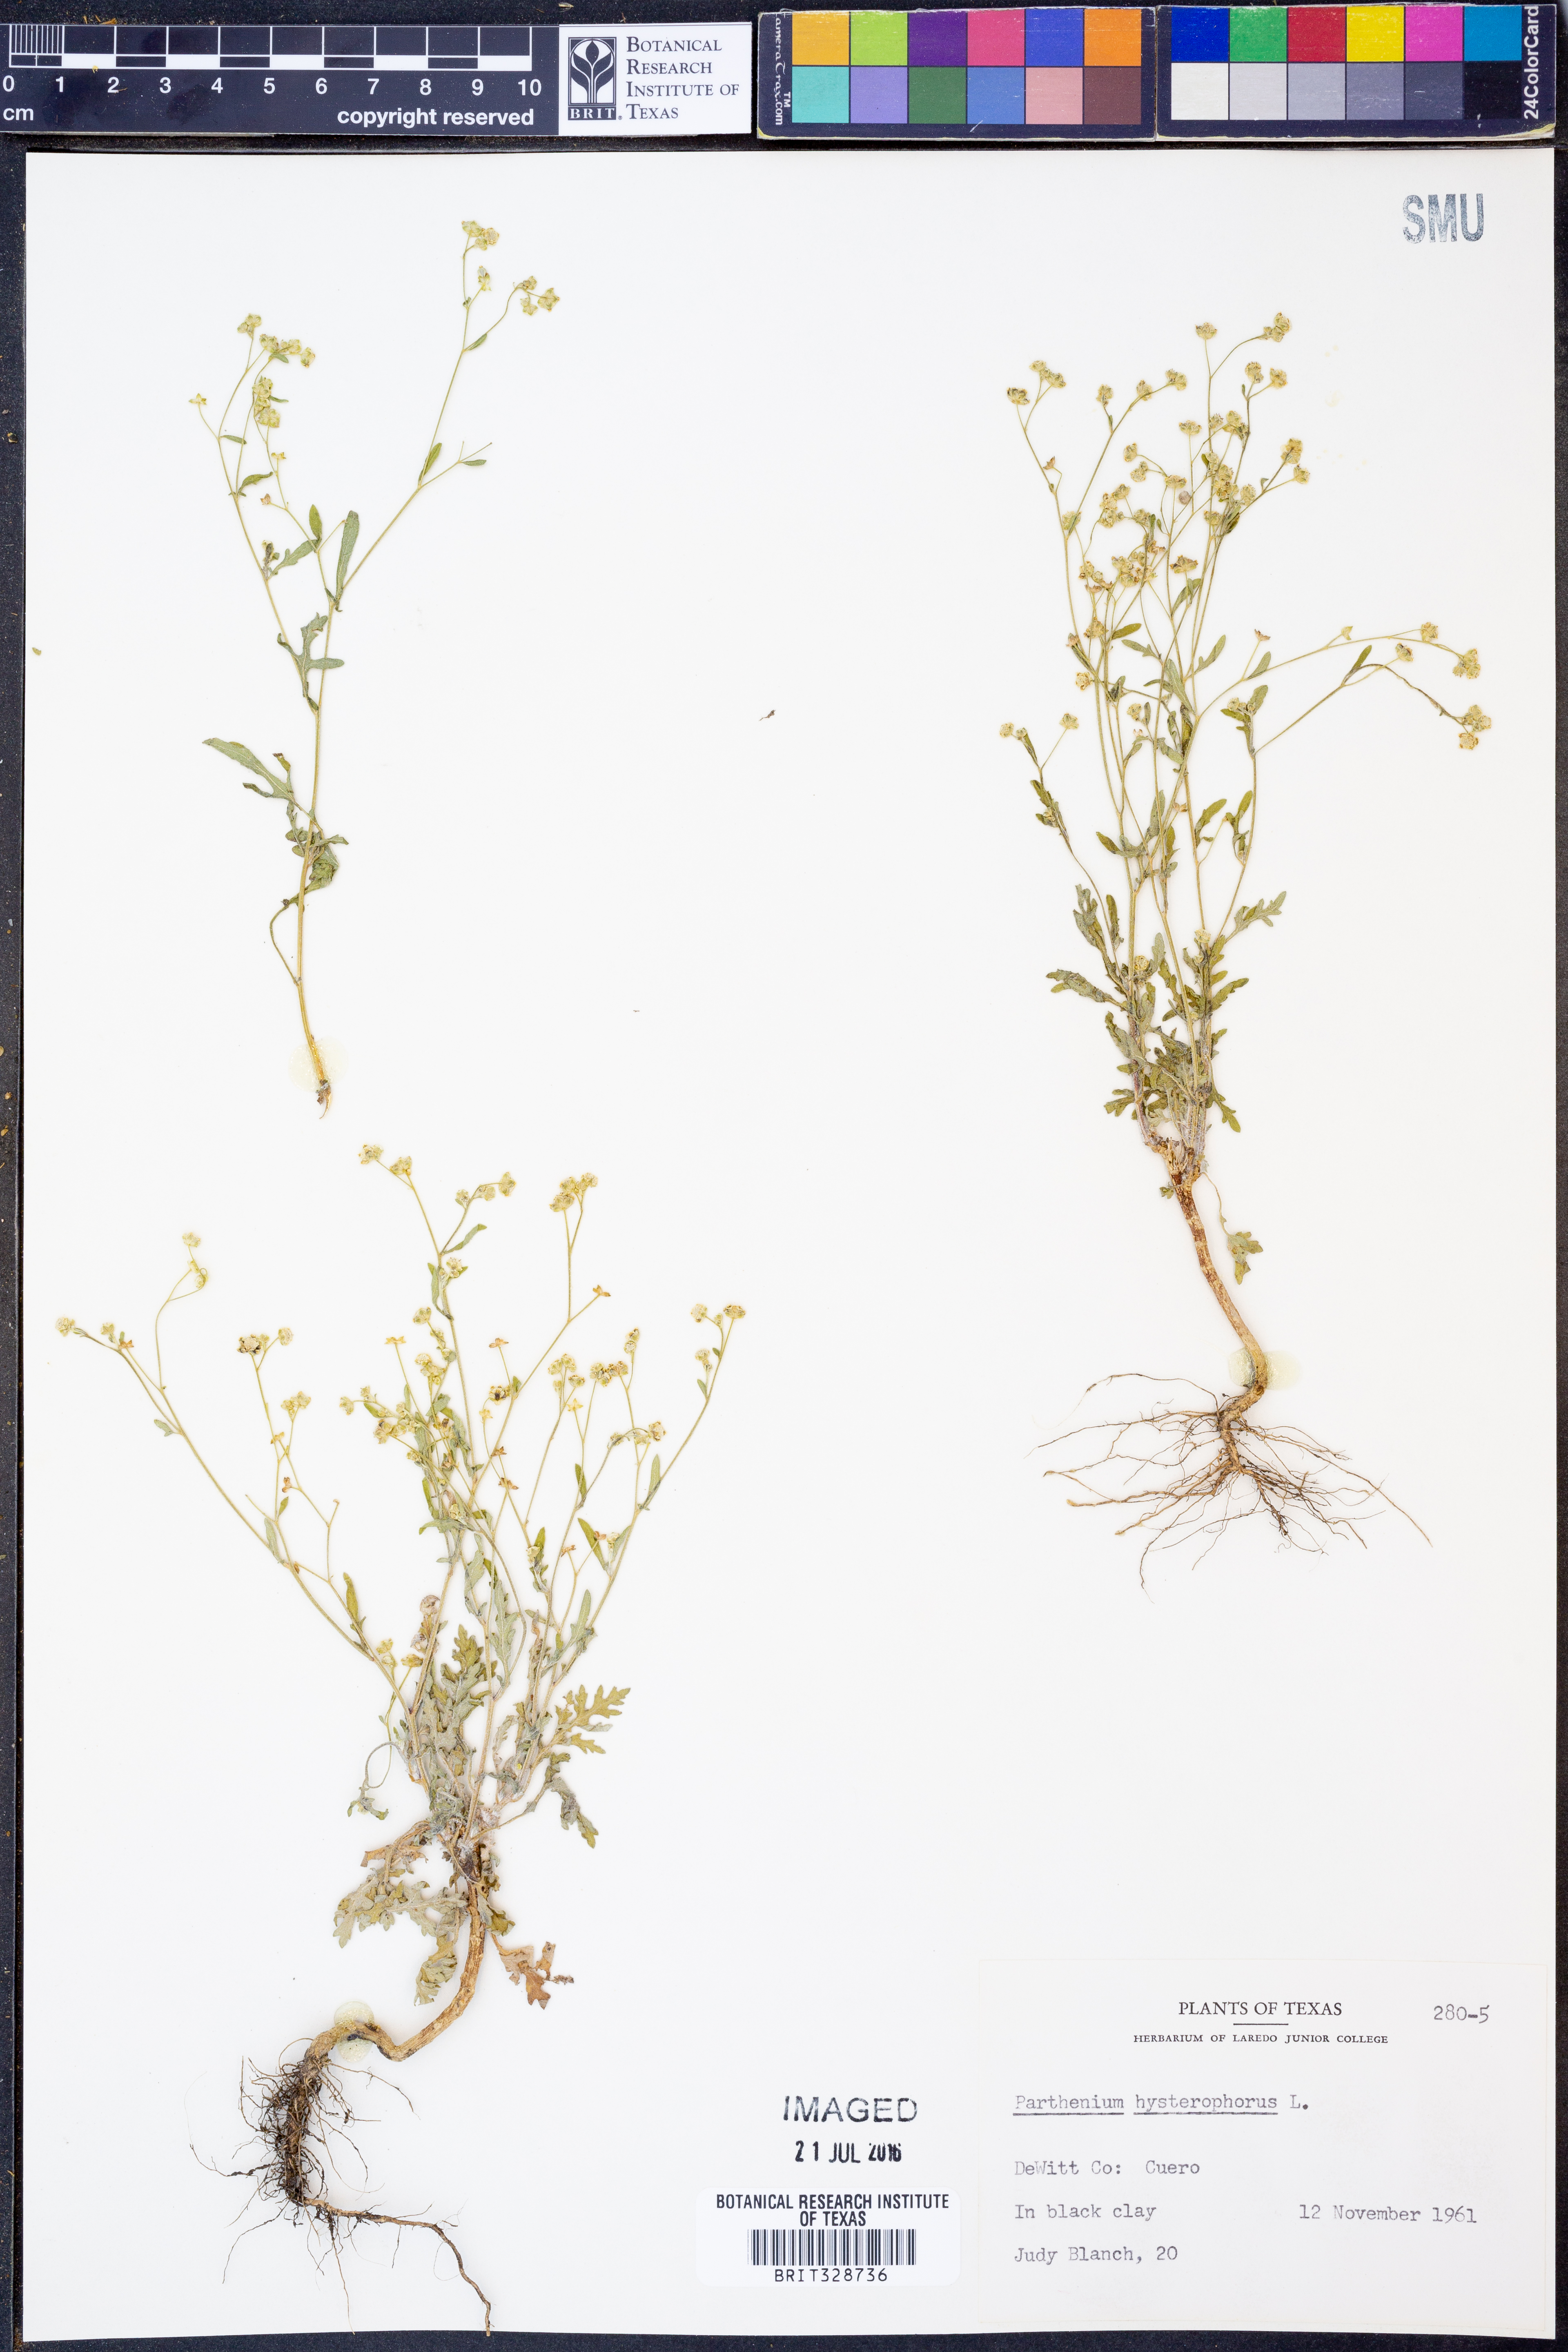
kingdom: Plantae
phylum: Tracheophyta
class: Magnoliopsida
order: Asterales
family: Asteraceae
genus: Parthenium
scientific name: Parthenium hysterophorus
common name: Santa maria feverfew
